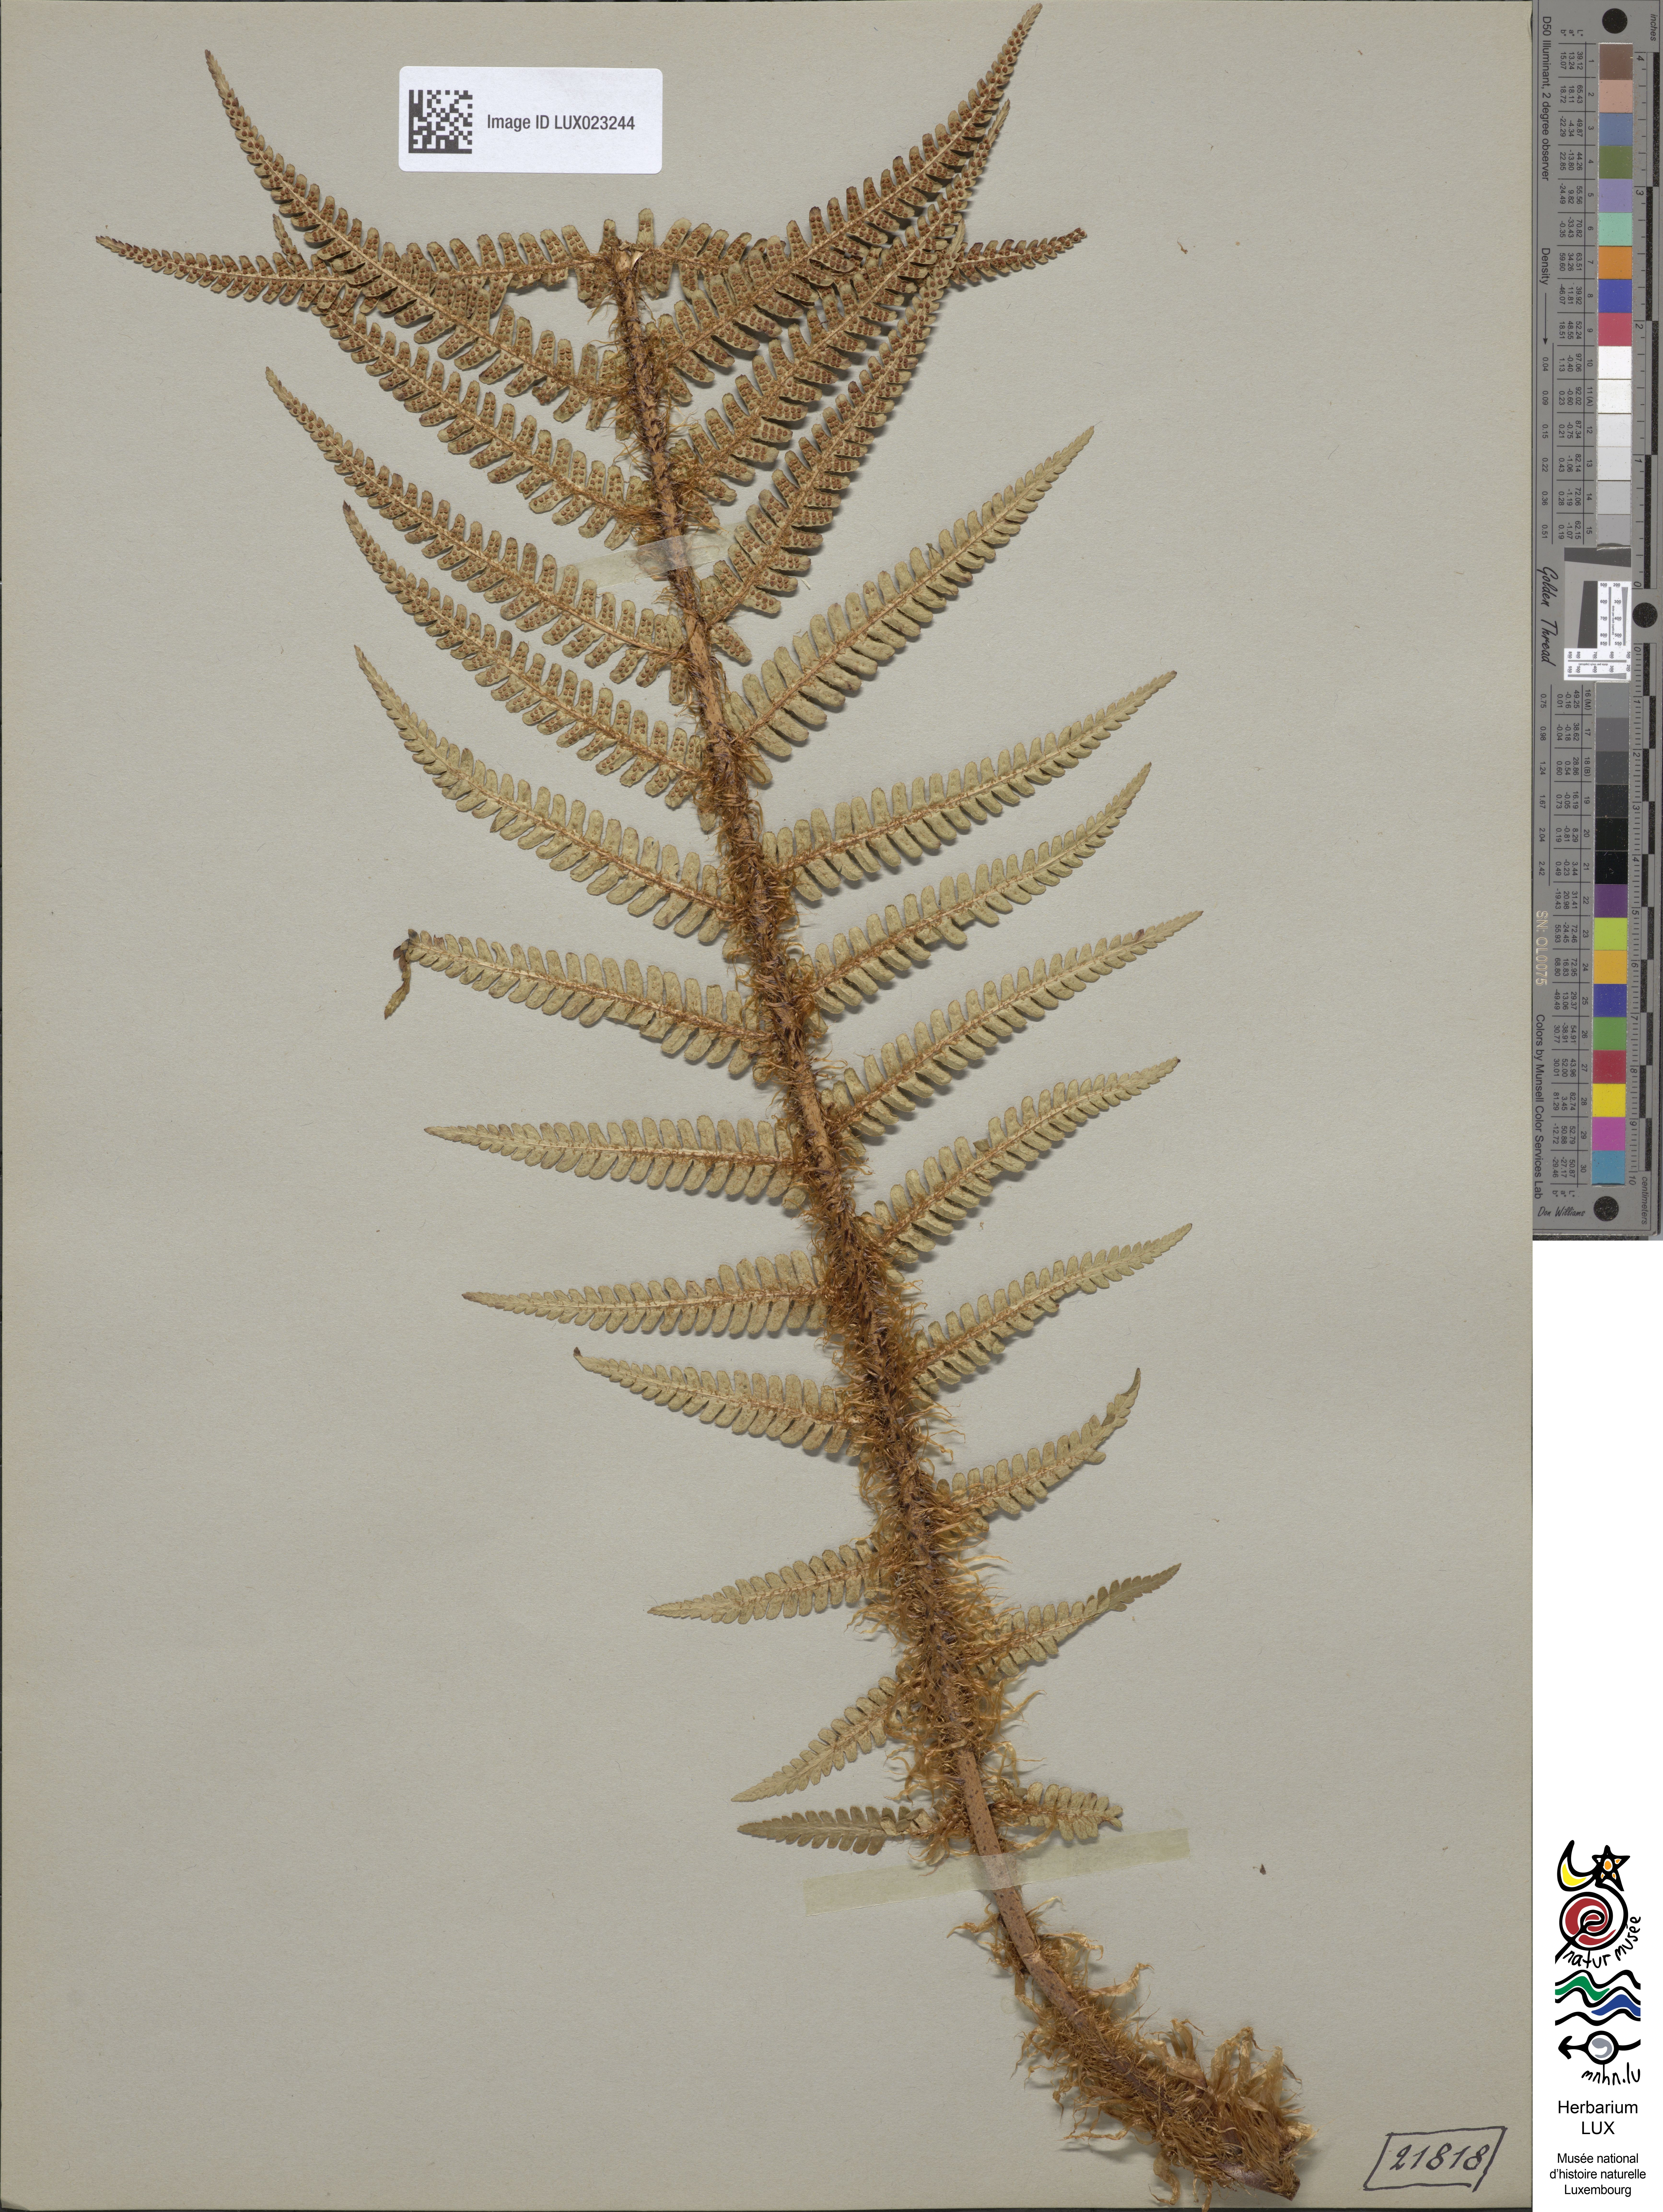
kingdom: Plantae
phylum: Tracheophyta
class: Polypodiopsida
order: Polypodiales
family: Dryopteridaceae
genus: Dryopteris
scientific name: Dryopteris
